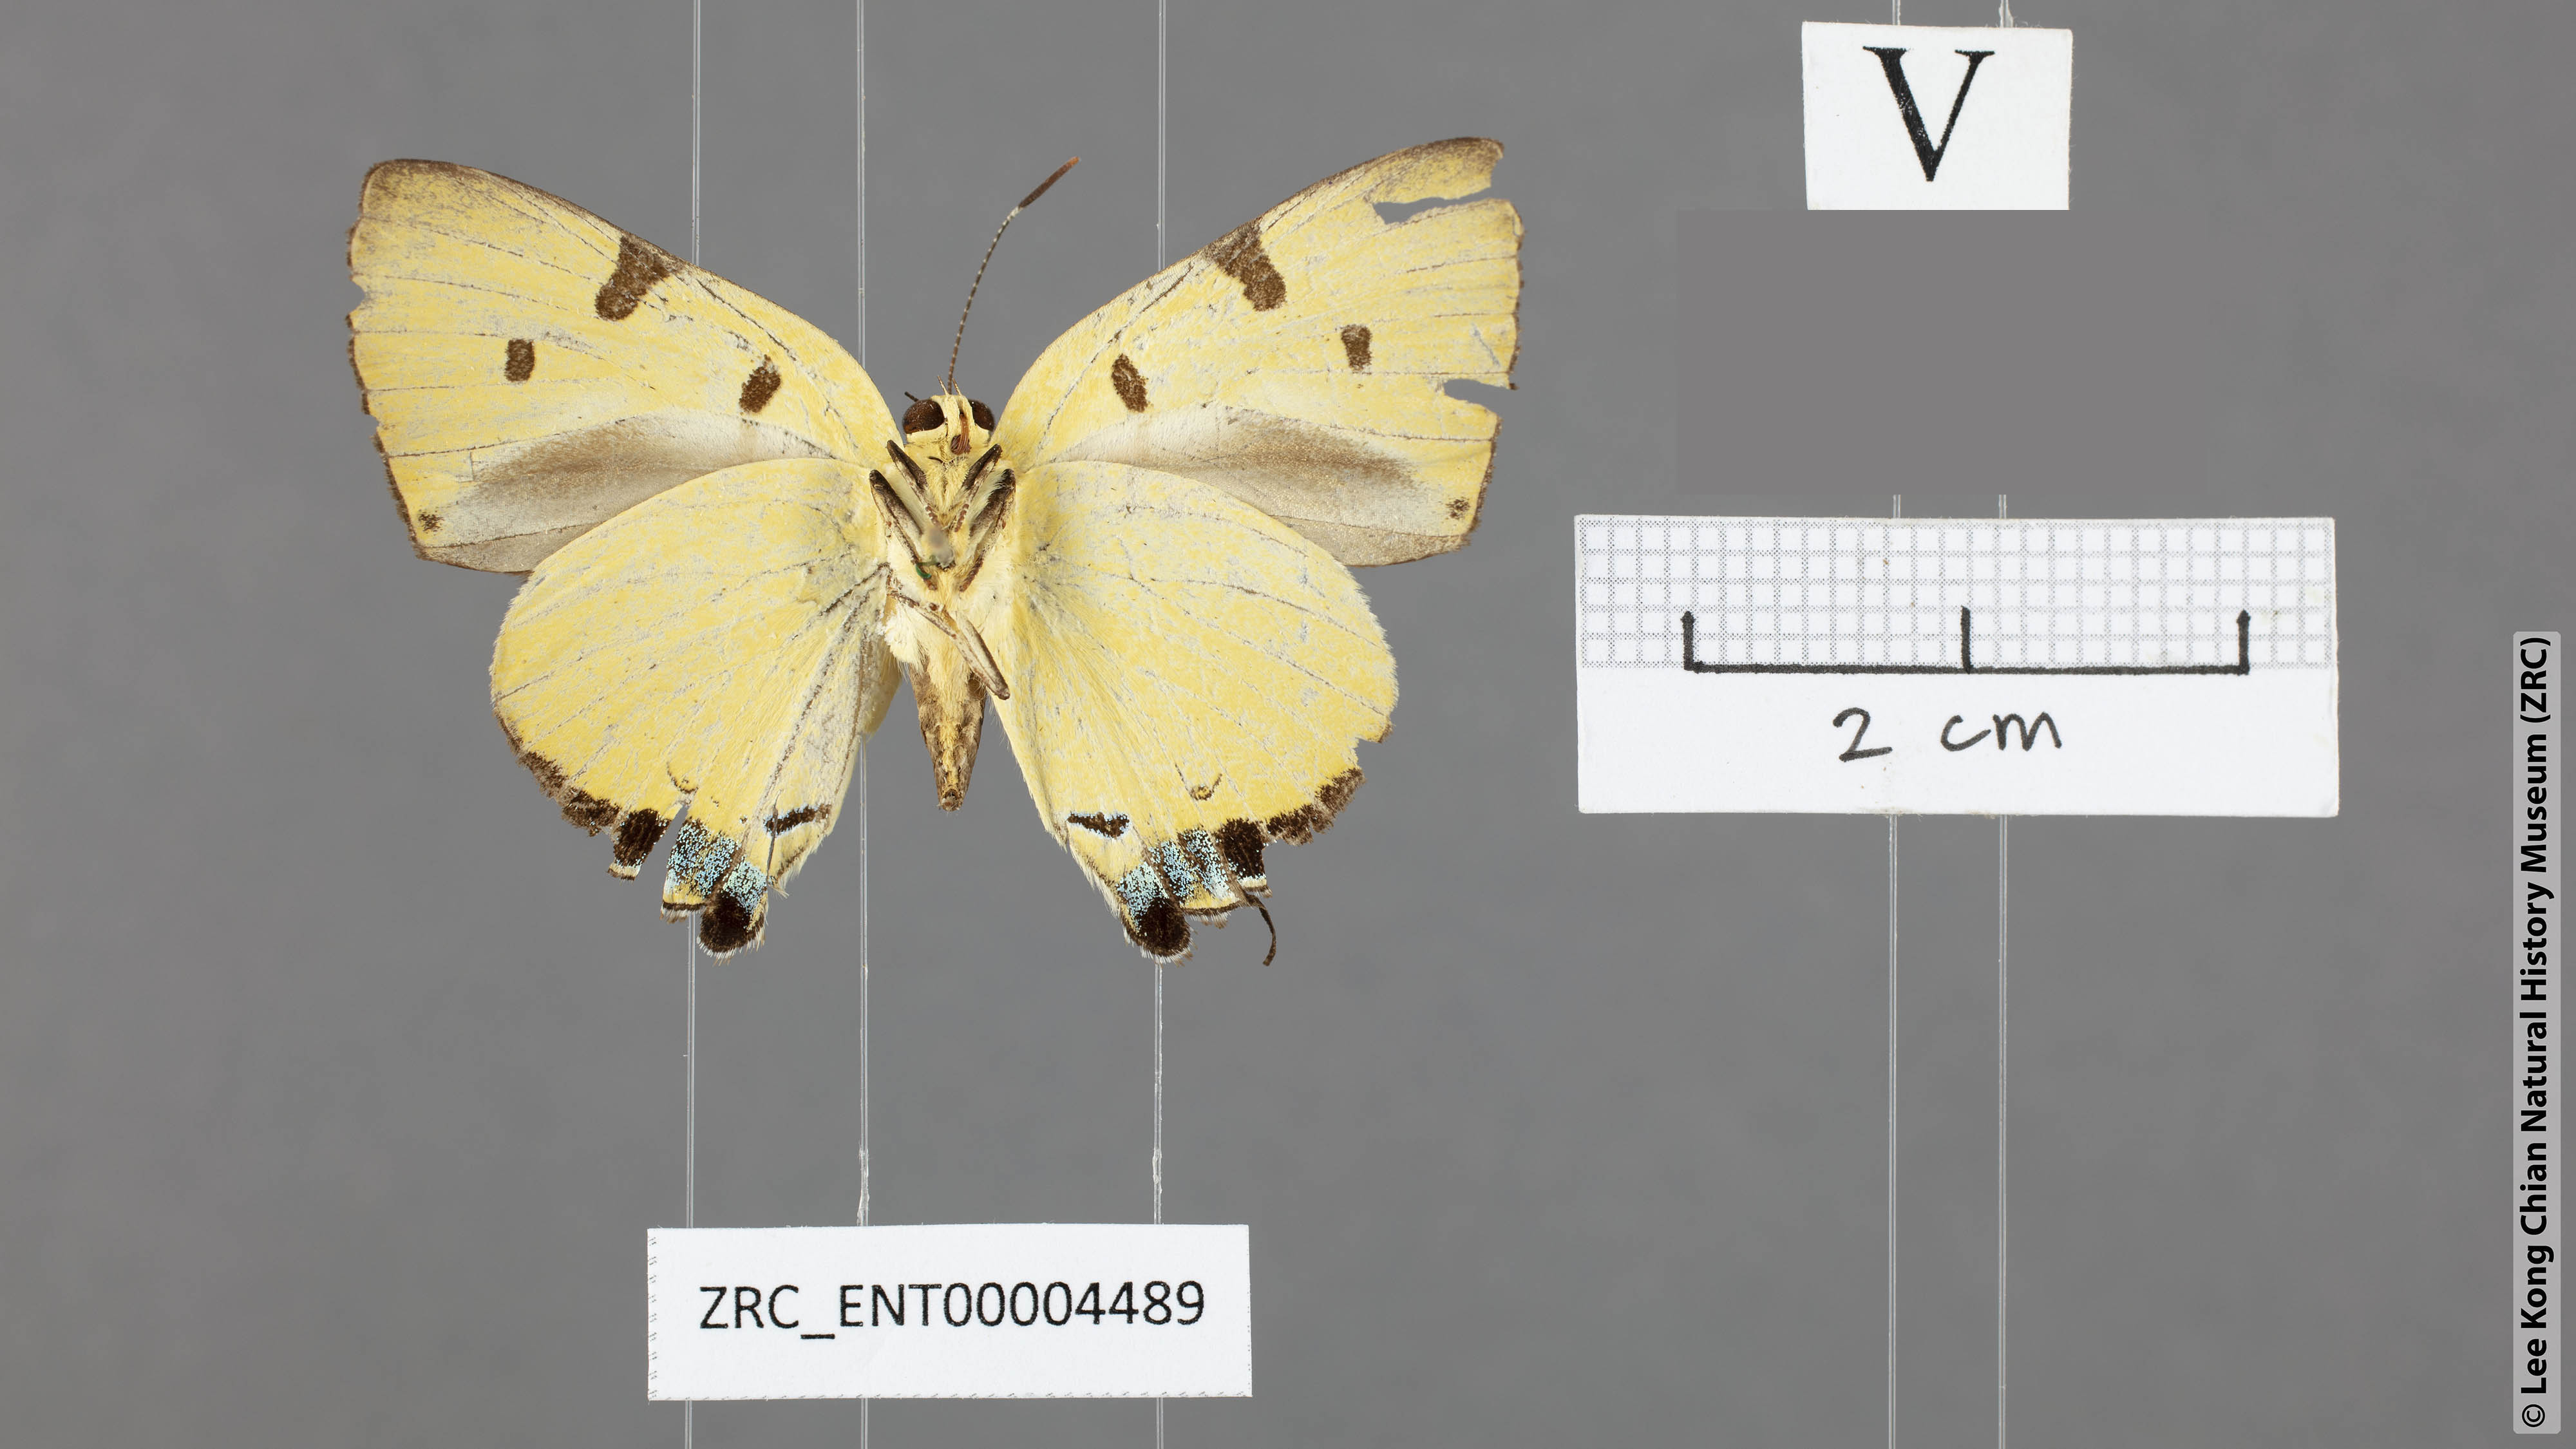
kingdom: Animalia
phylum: Arthropoda
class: Insecta
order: Lepidoptera
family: Lycaenidae
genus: Rapala
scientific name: Rapala domitia
